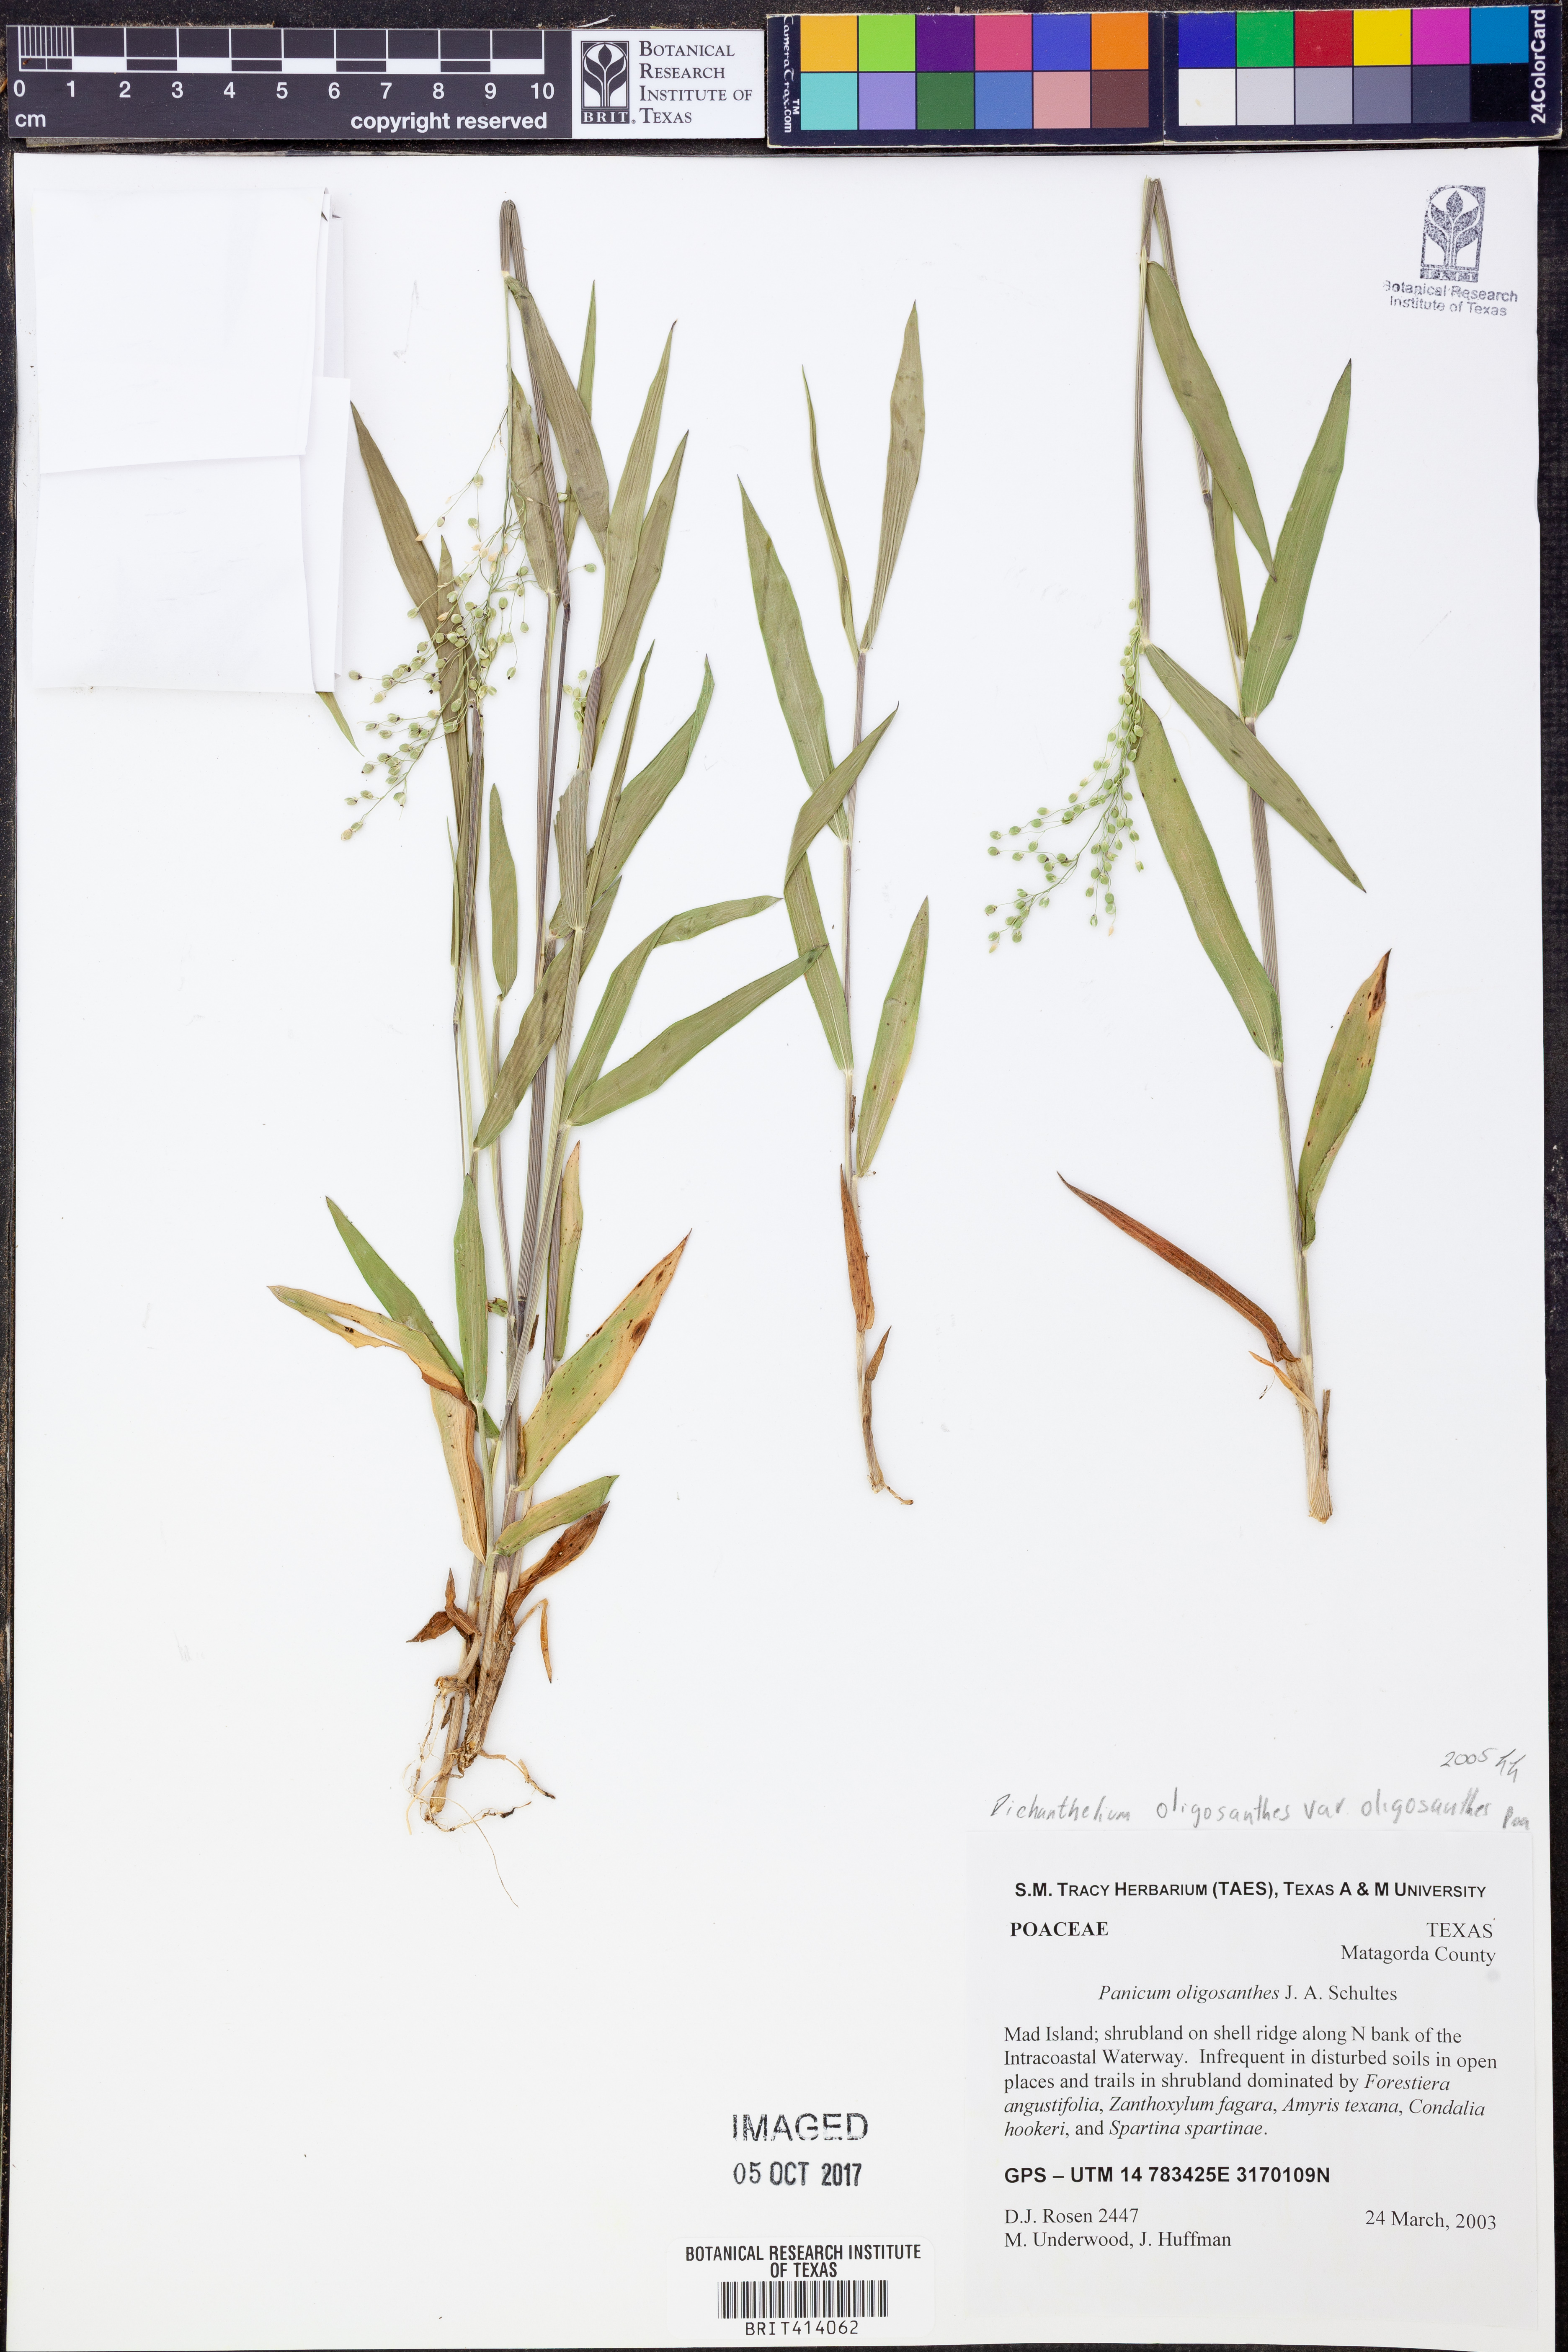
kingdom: Plantae
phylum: Tracheophyta
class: Liliopsida
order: Poales
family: Poaceae
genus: Dichanthelium
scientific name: Dichanthelium oligosanthes
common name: Few-anther obscuregrass
